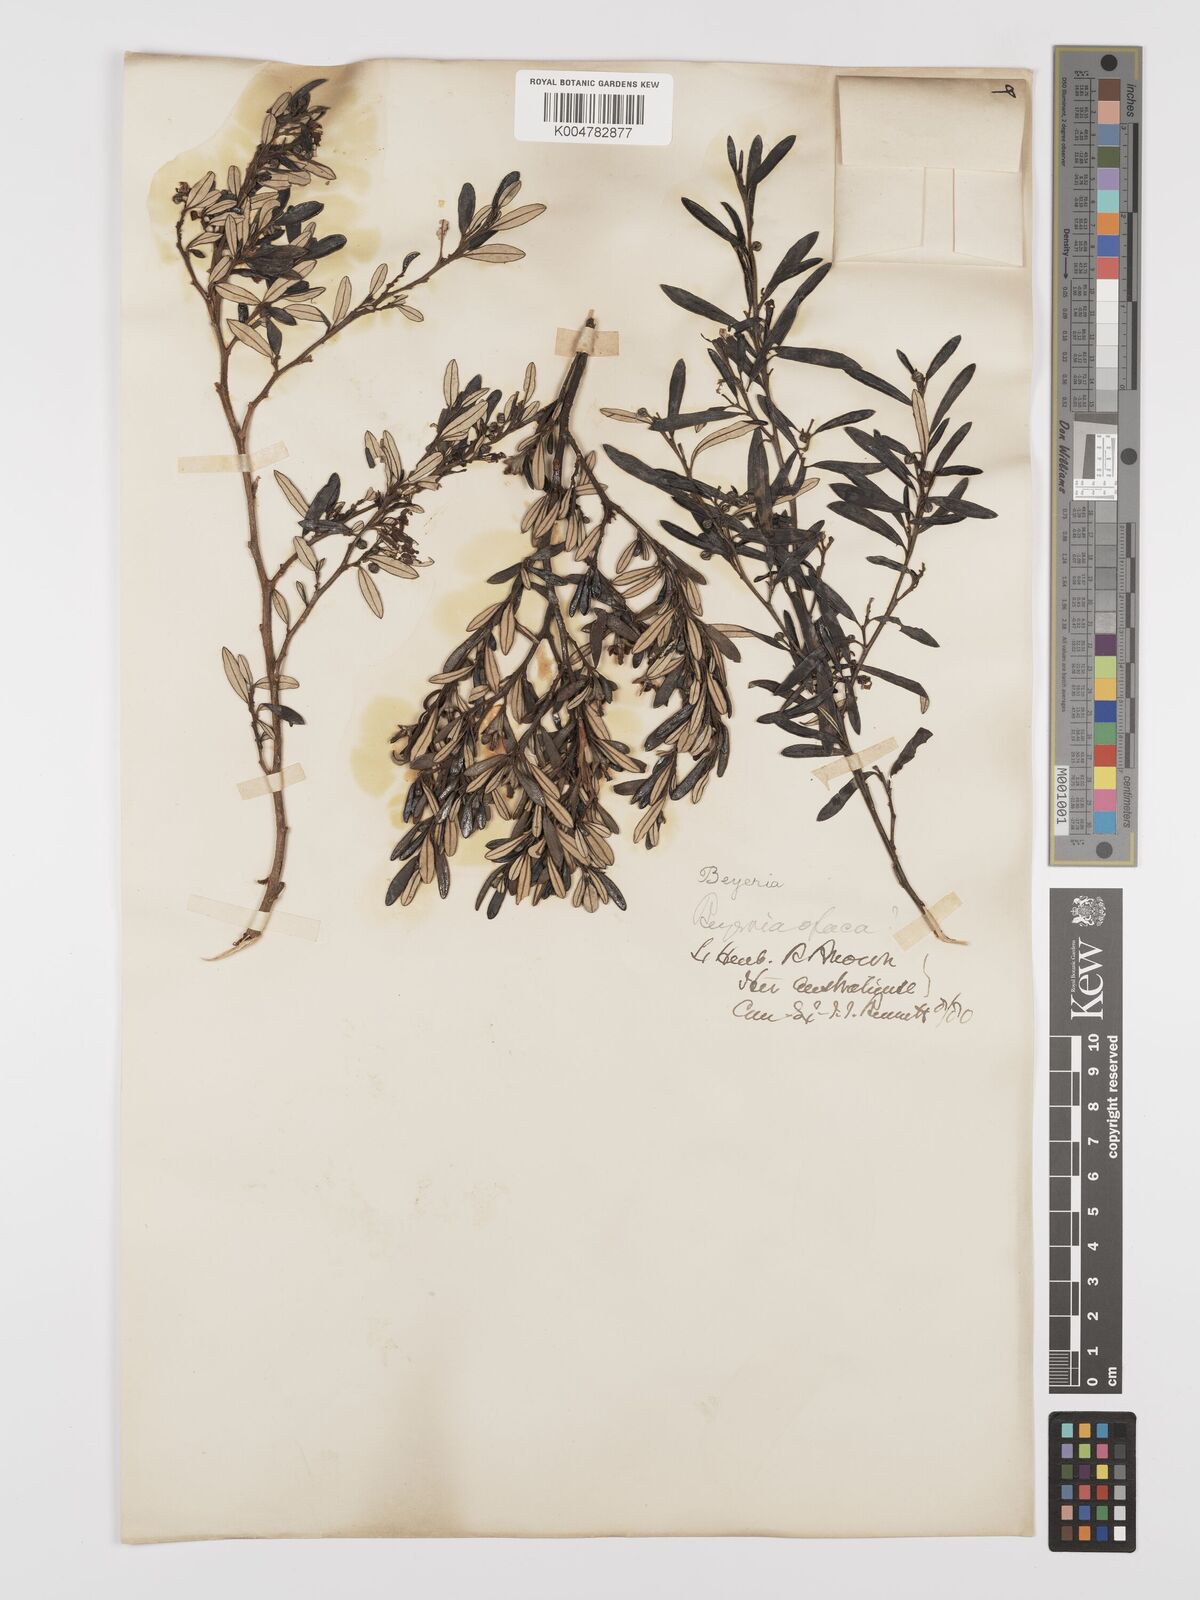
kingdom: Plantae
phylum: Tracheophyta
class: Magnoliopsida
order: Malpighiales
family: Euphorbiaceae
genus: Beyeria
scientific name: Beyeria lechenaultii
